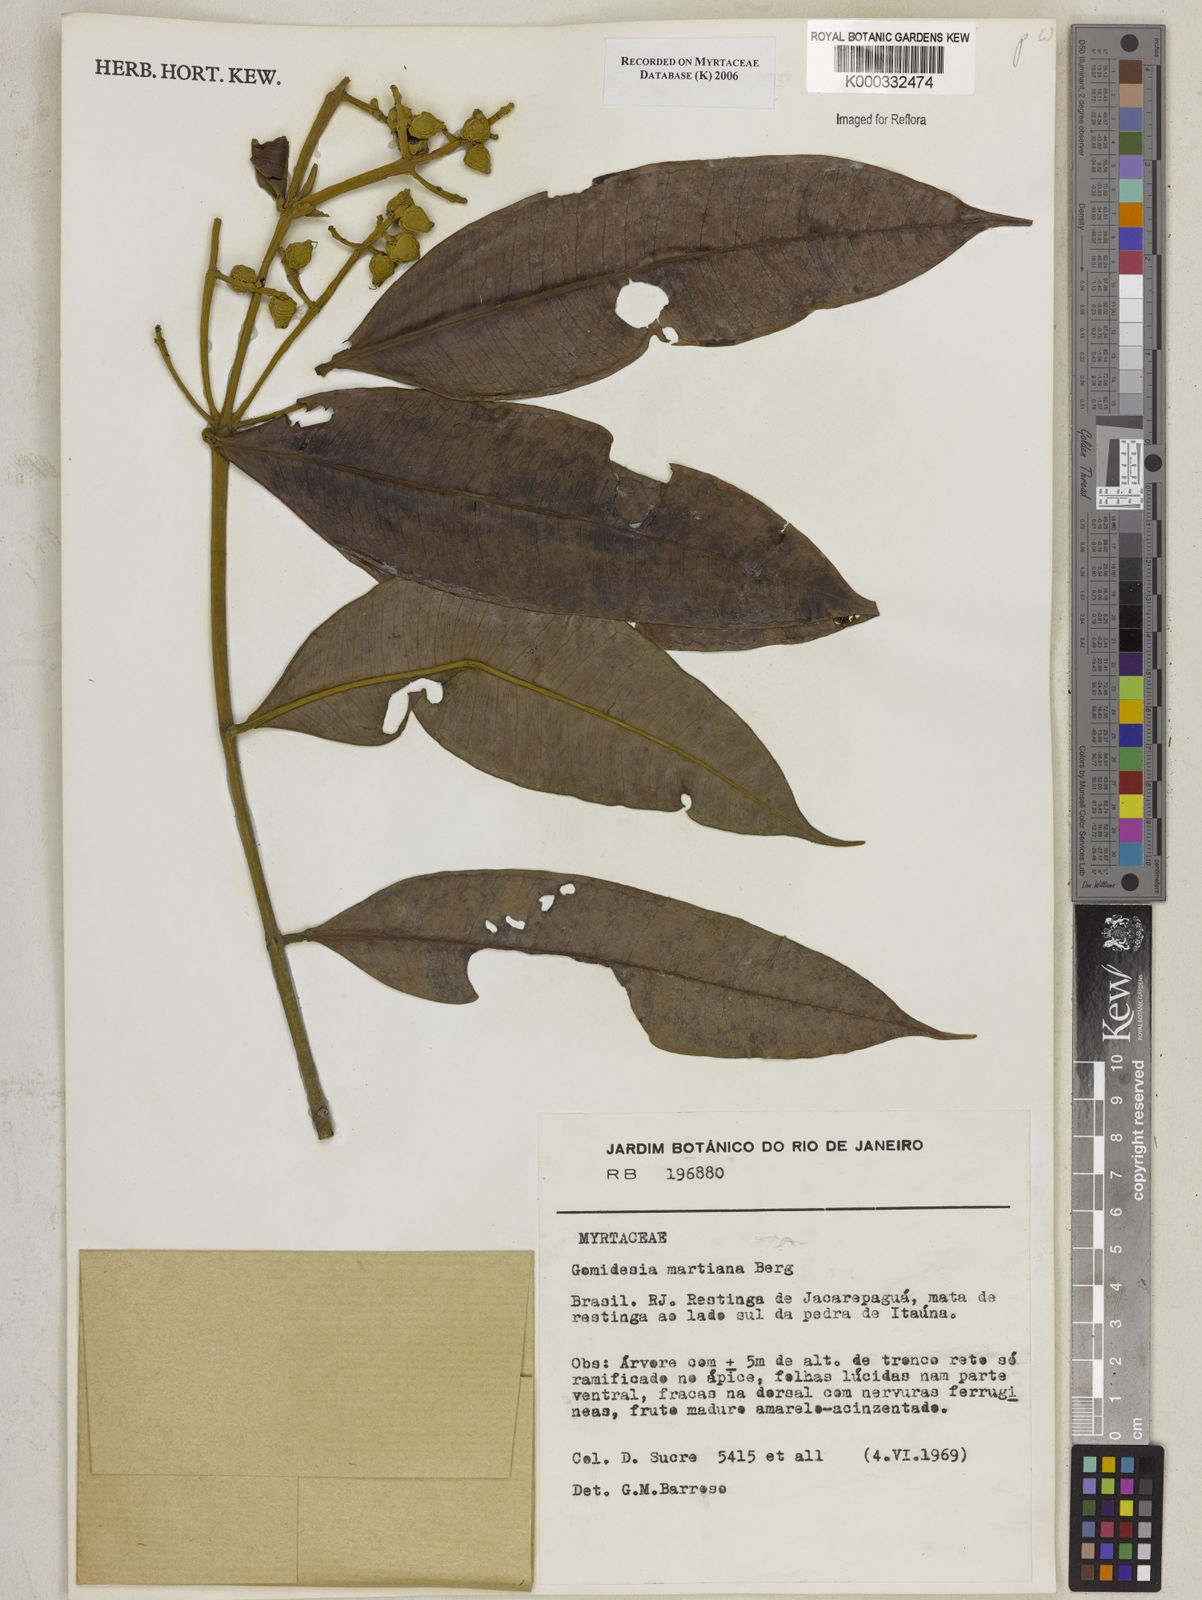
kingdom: Plantae
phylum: Tracheophyta
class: Magnoliopsida
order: Myrtales
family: Myrtaceae
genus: Myrcia
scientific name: Myrcia vittoriana
